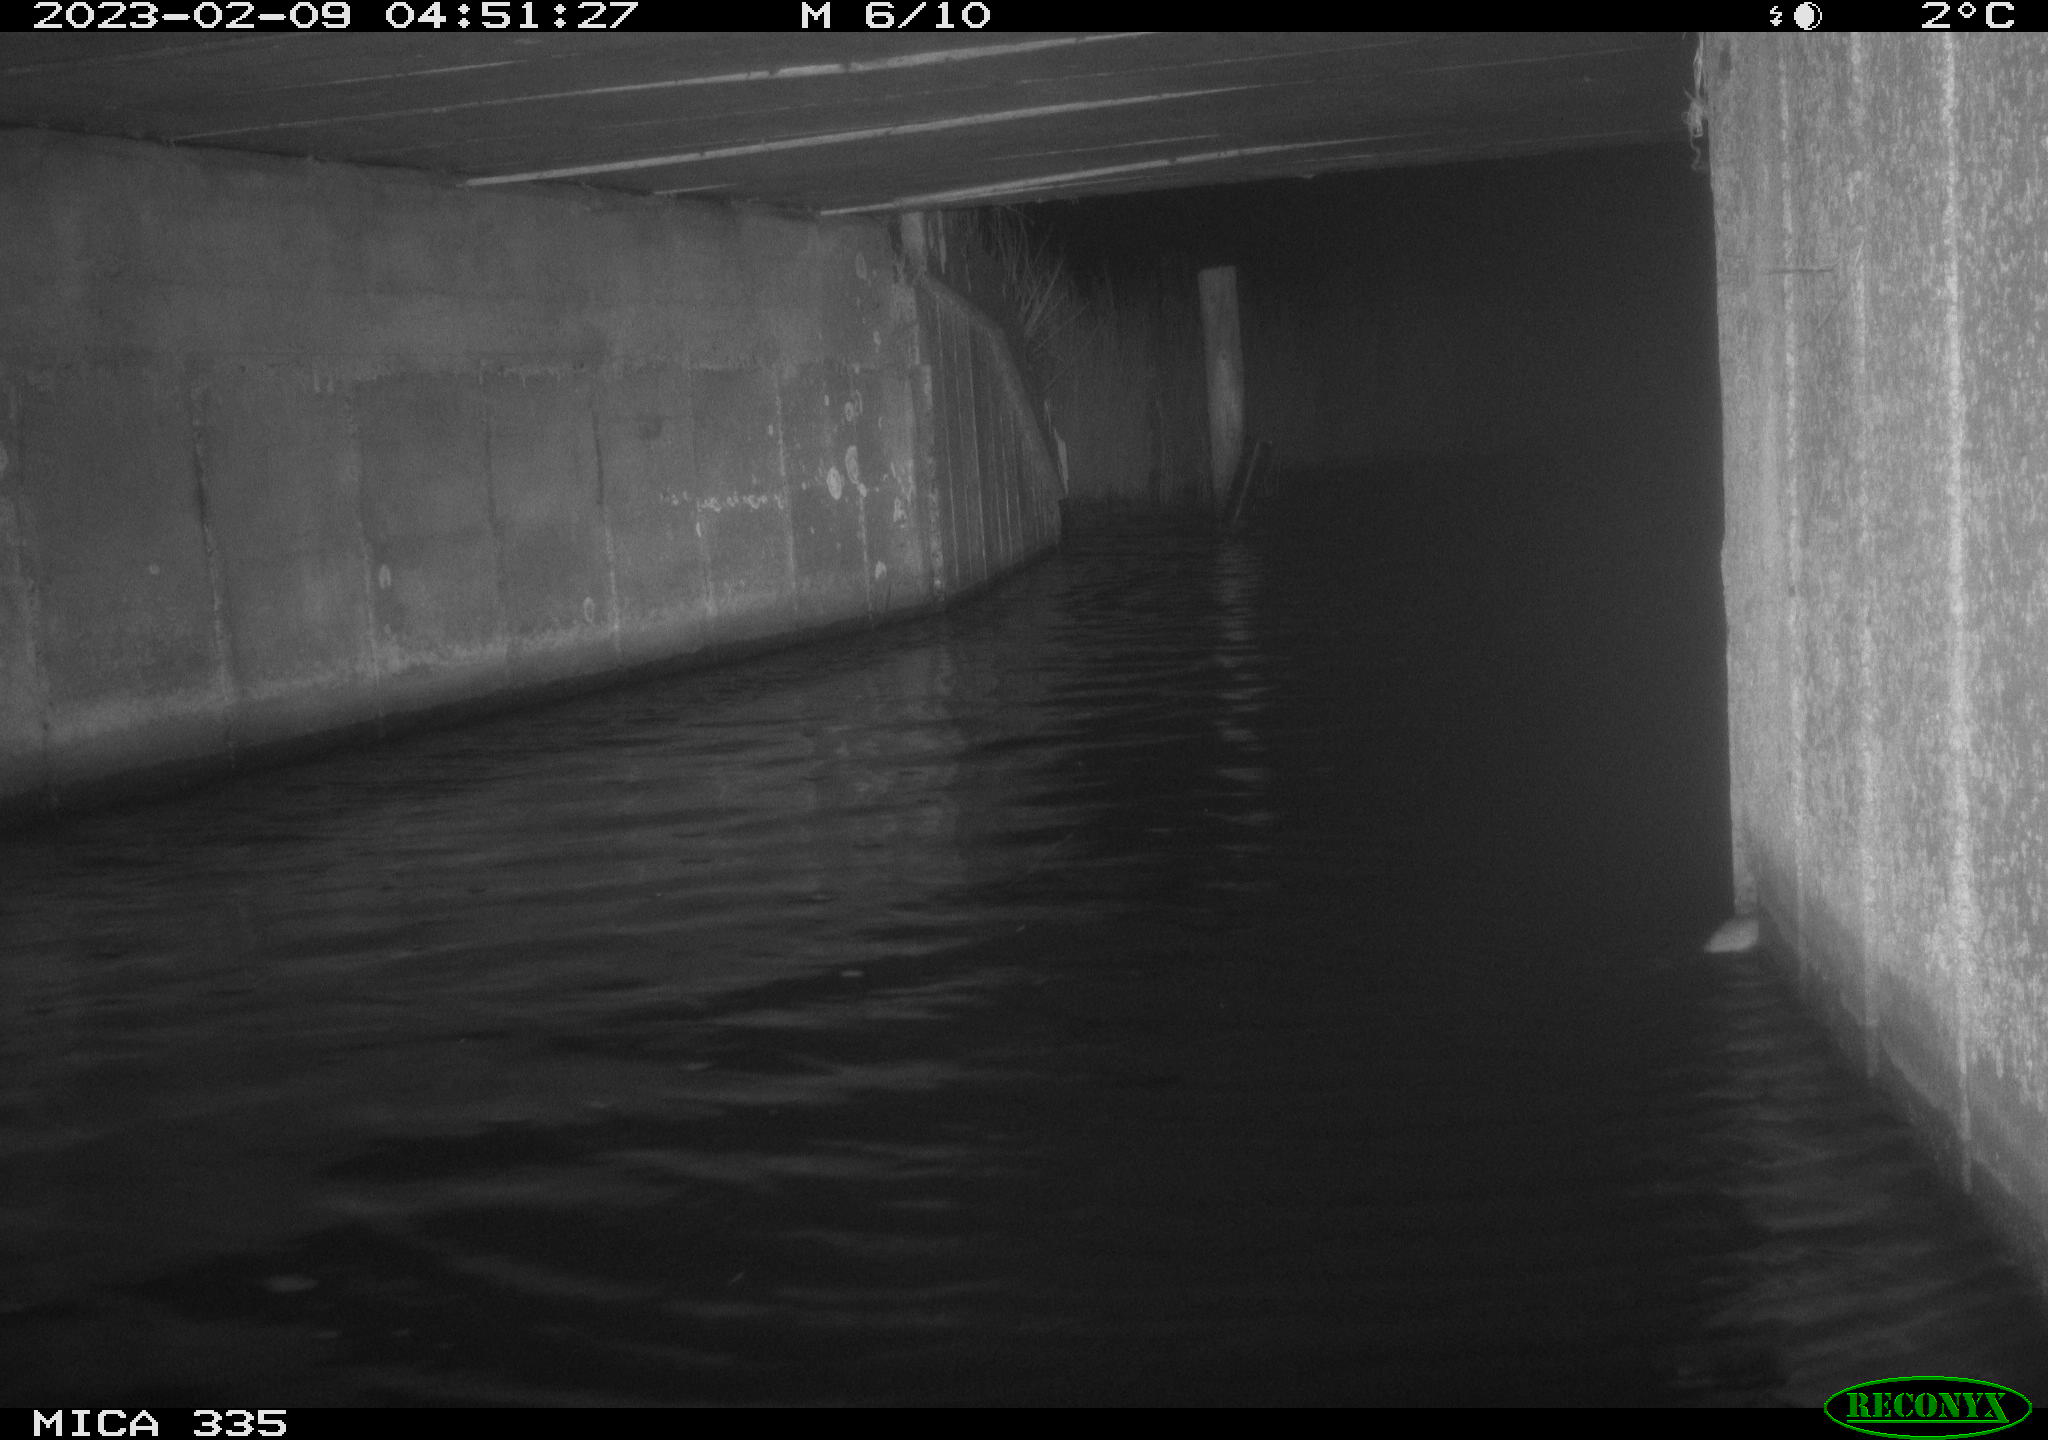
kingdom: Animalia
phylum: Chordata
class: Mammalia
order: Rodentia
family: Muridae
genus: Rattus
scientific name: Rattus norvegicus
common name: Brown rat
